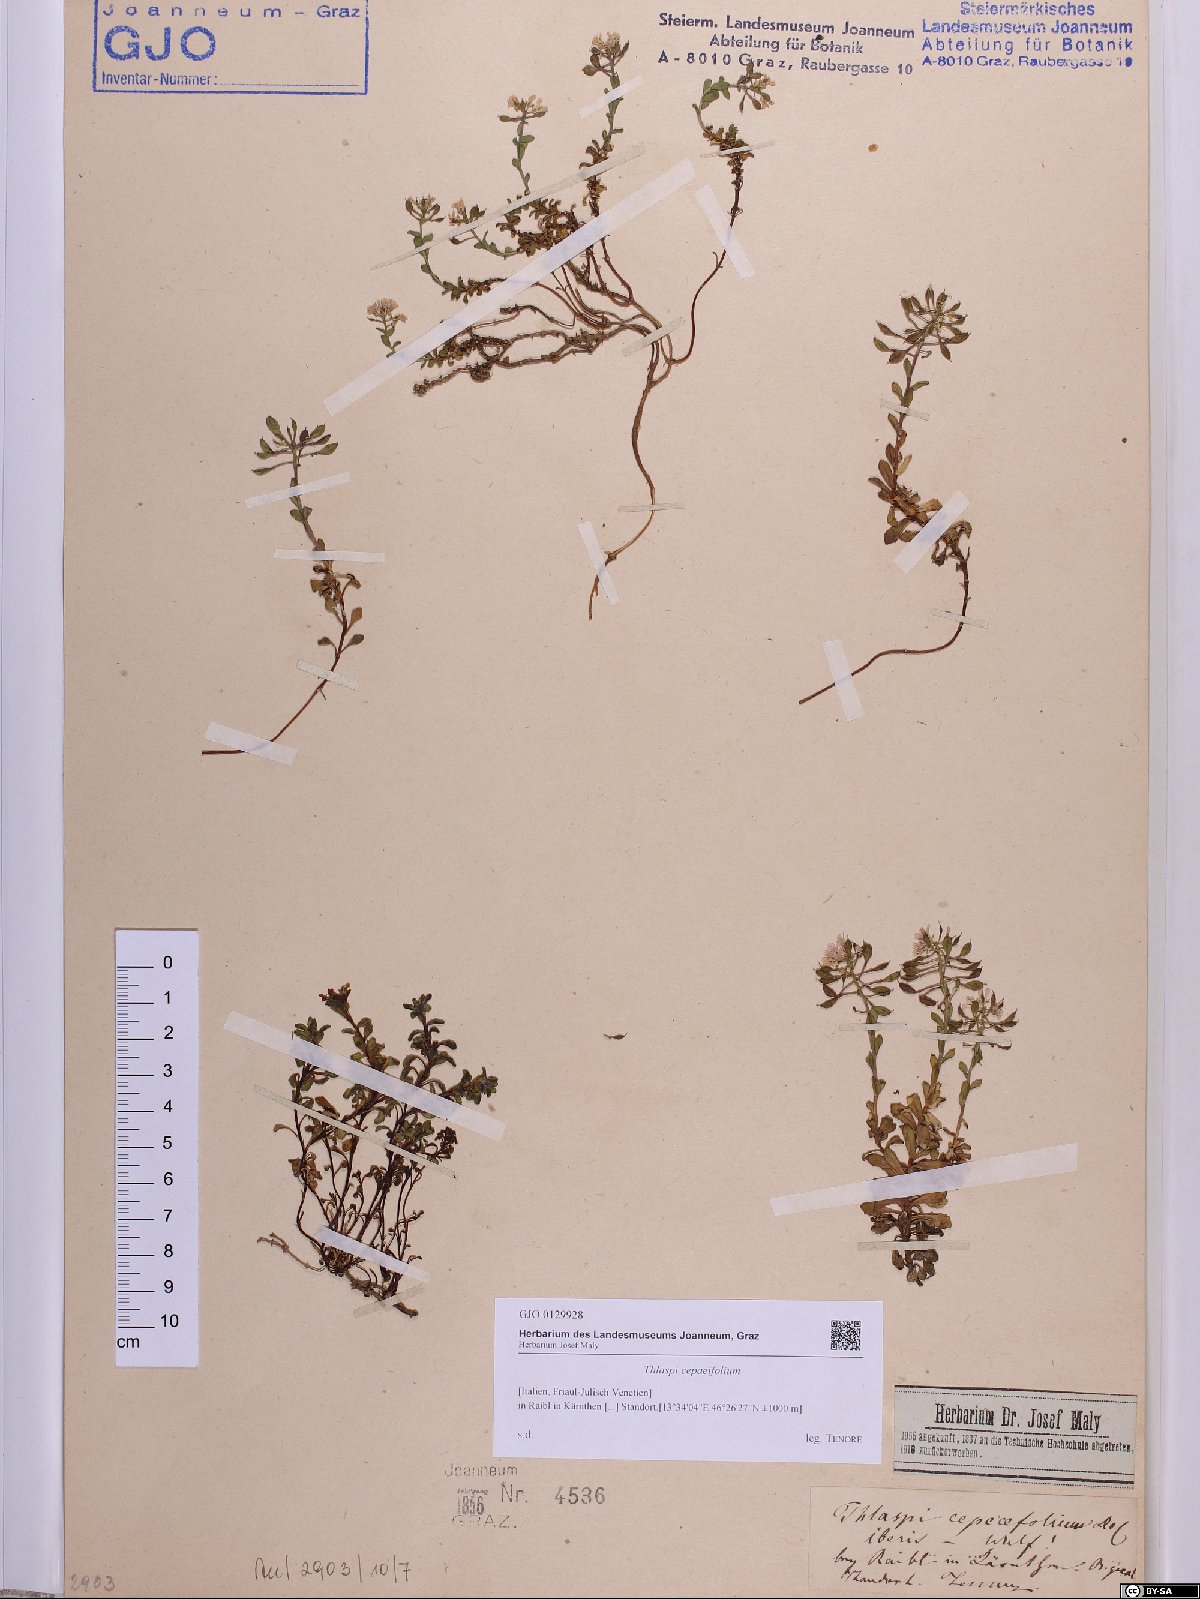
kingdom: Plantae
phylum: Tracheophyta
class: Magnoliopsida
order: Brassicales
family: Brassicaceae
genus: Noccaea
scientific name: Noccaea cepaeifolia
